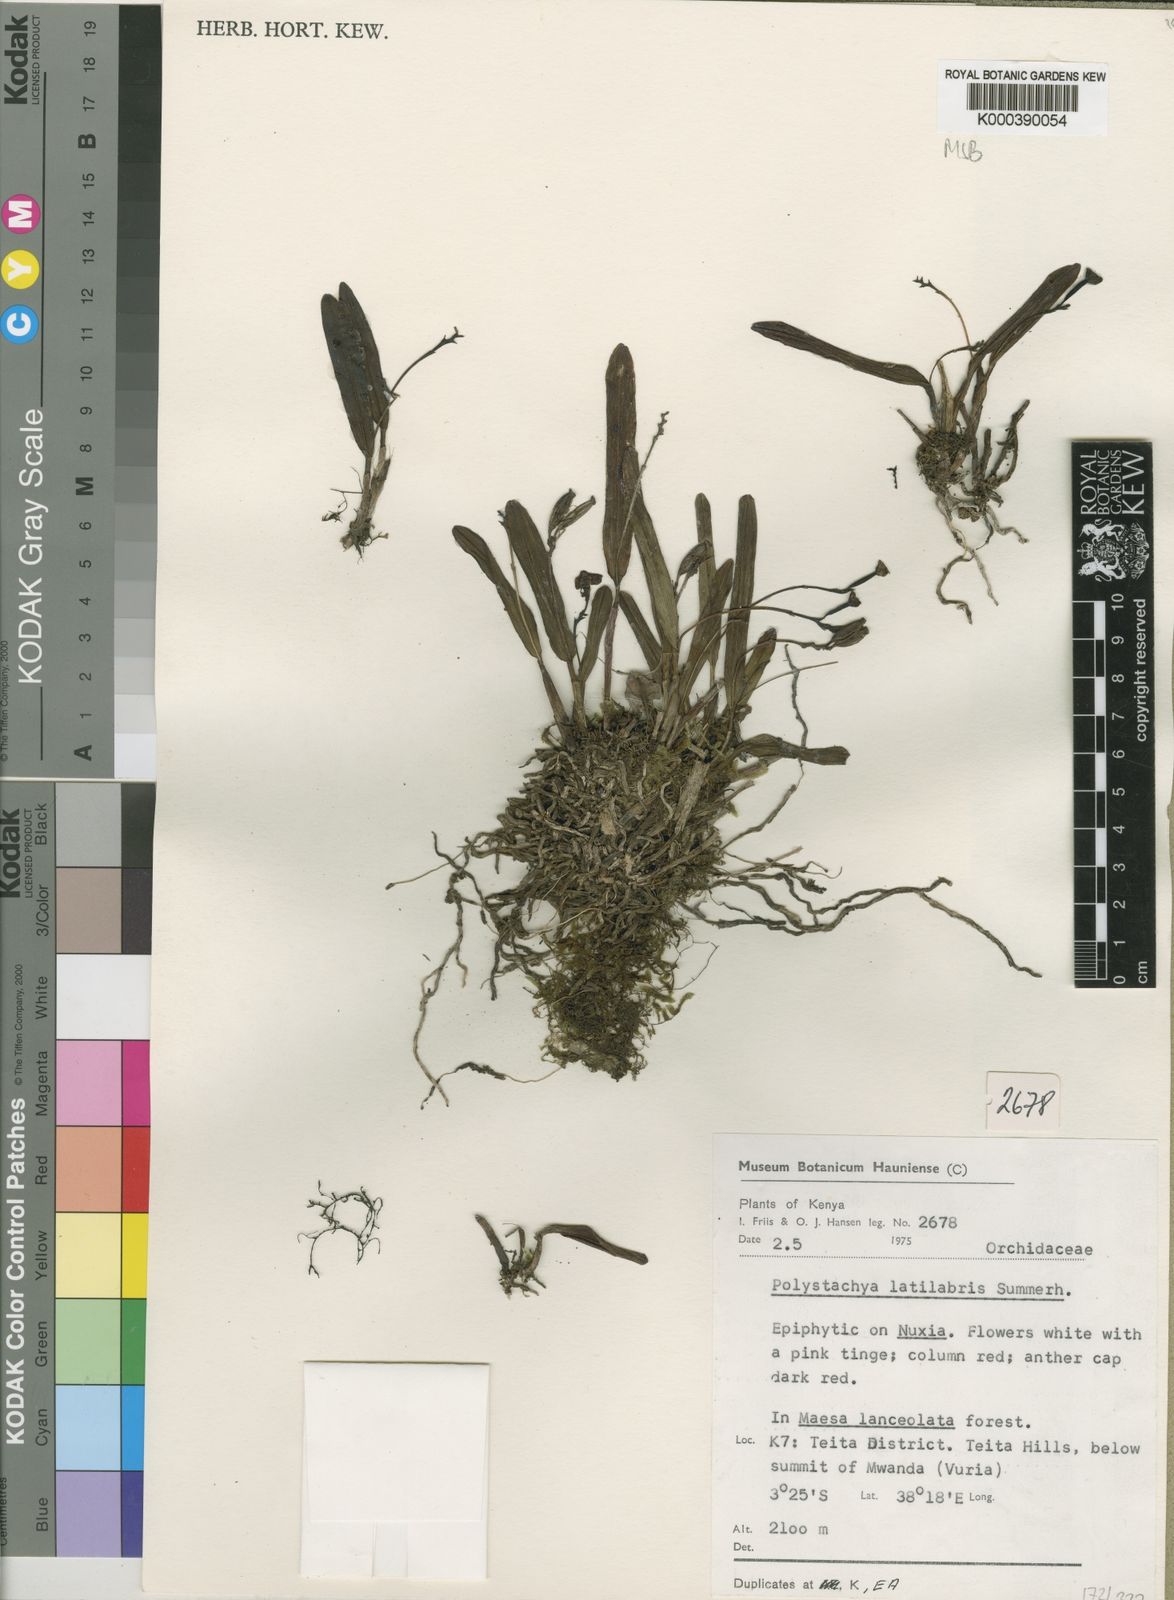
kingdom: Plantae
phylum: Tracheophyta
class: Liliopsida
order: Asparagales
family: Orchidaceae
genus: Polystachya
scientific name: Polystachya caespitifica
